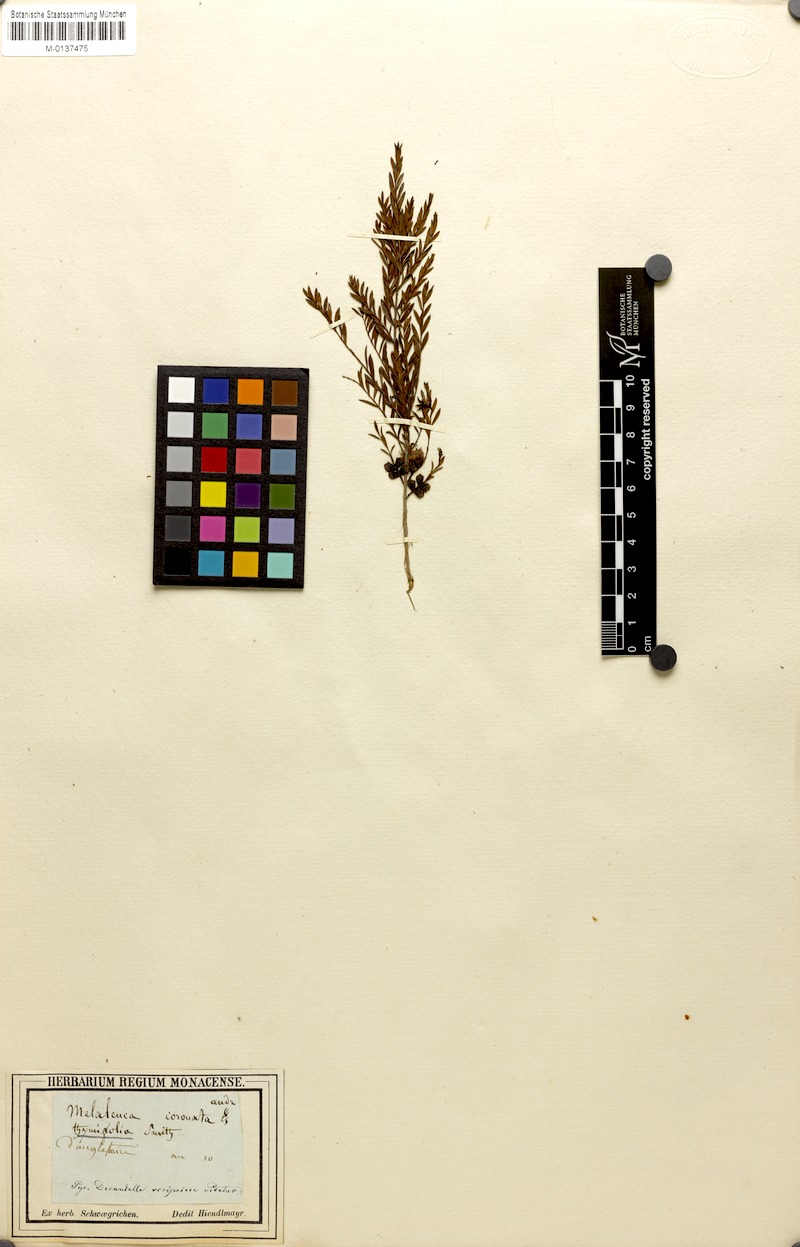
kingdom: Plantae
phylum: Tracheophyta
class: Magnoliopsida
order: Myrtales
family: Myrtaceae
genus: Melaleuca
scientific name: Melaleuca thymifolia
